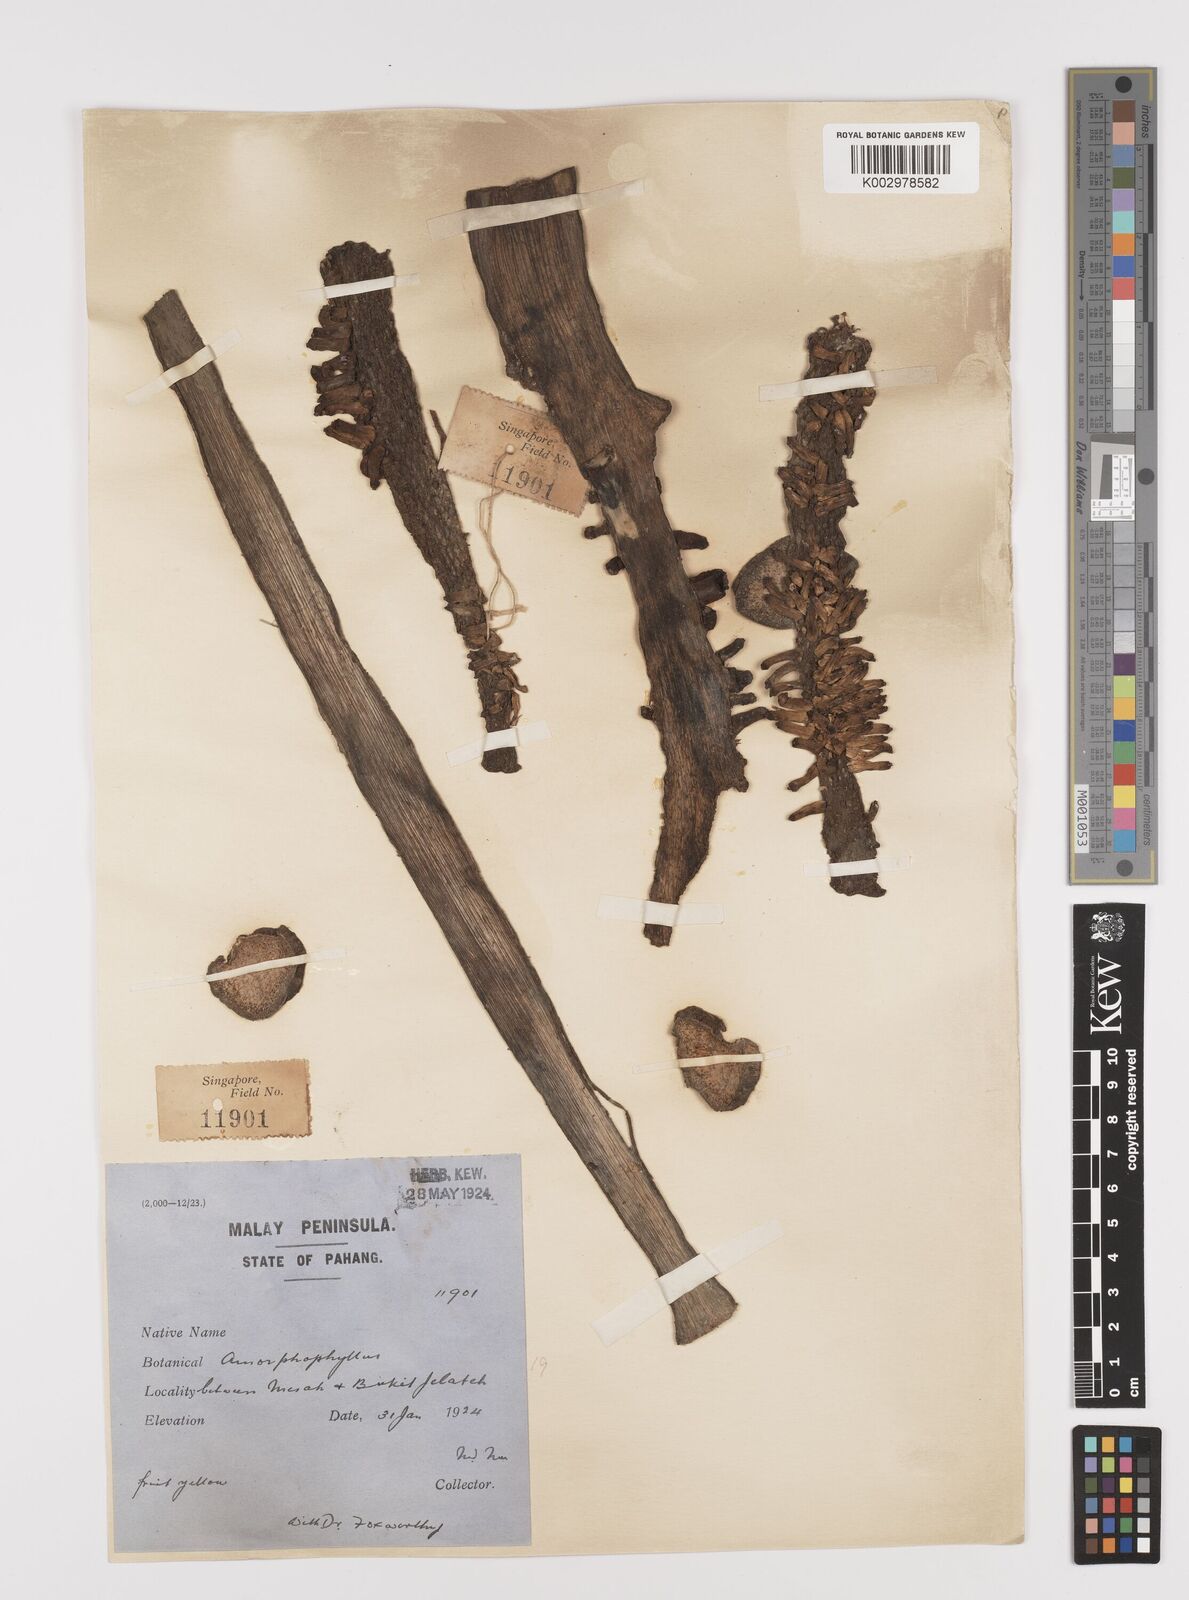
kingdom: Plantae
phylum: Tracheophyta
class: Liliopsida
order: Alismatales
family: Araceae
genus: Amorphophallus
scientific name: Amorphophallus paeoniifolius
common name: Telinga-potato
